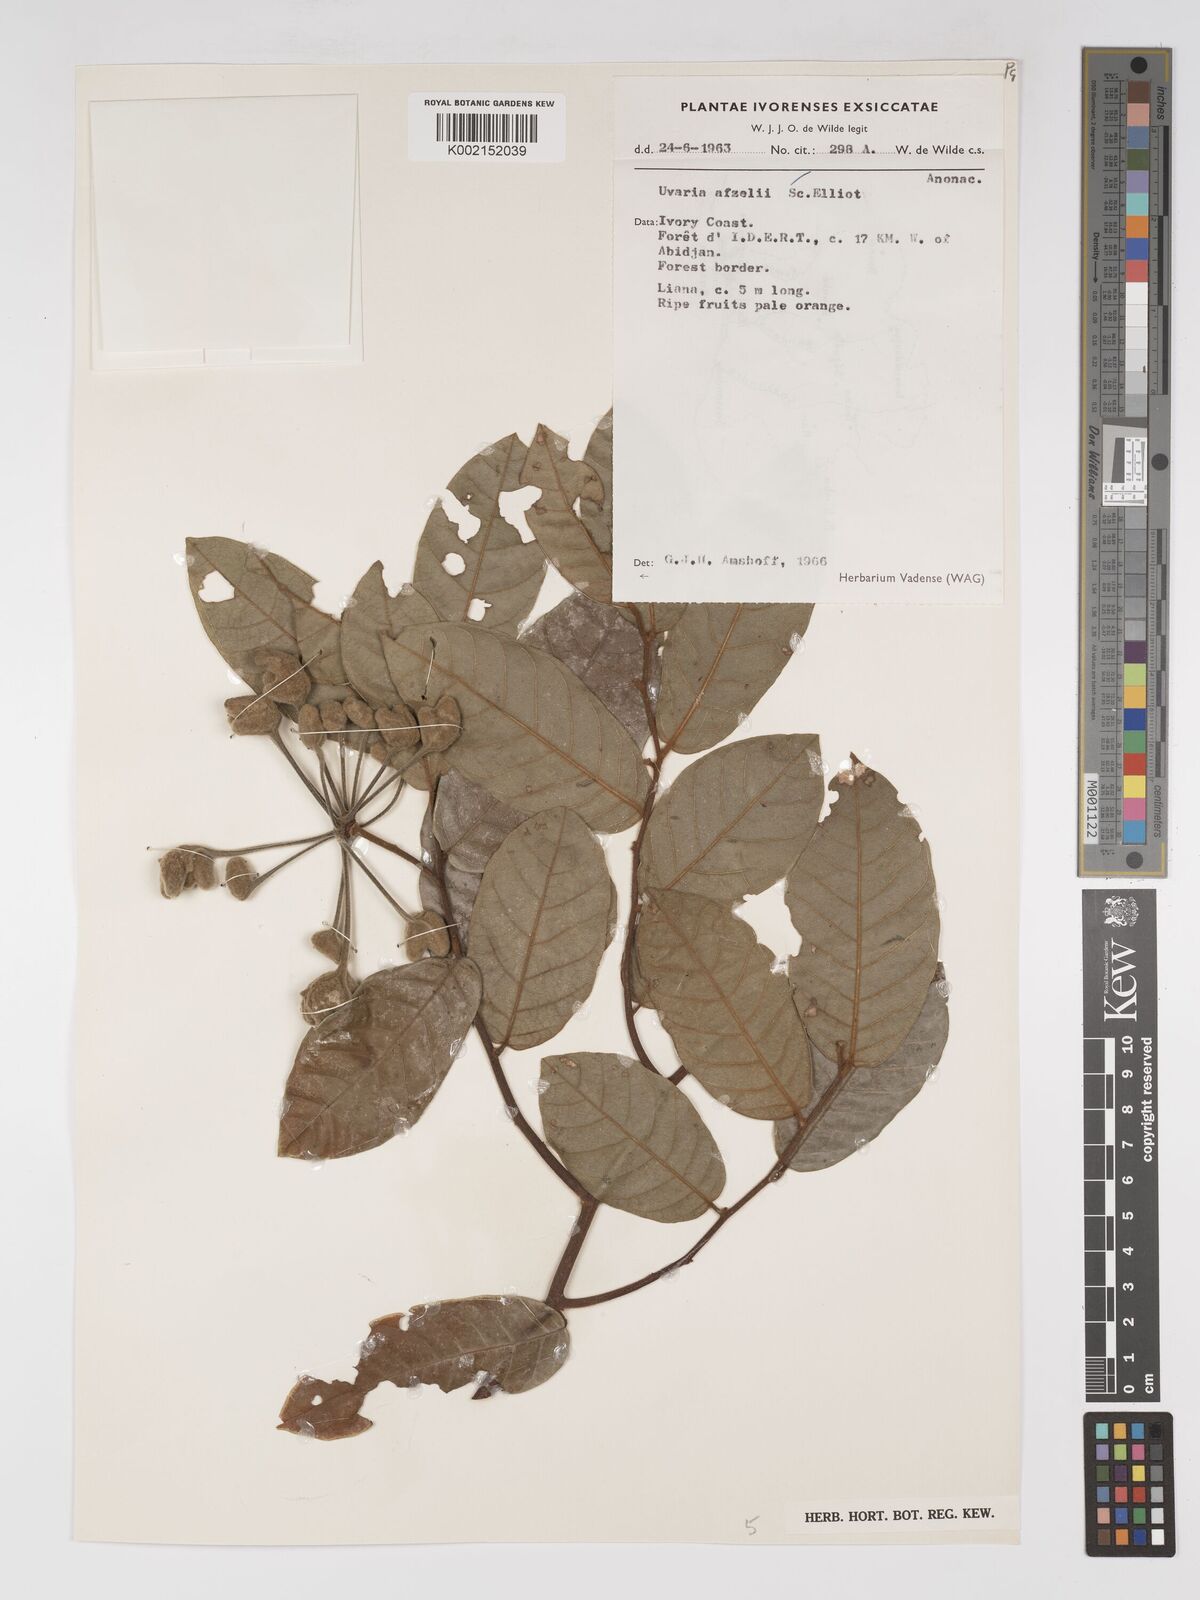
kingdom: Plantae
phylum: Tracheophyta
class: Magnoliopsida
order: Magnoliales
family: Annonaceae
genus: Uvaria
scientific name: Uvaria afzelii
